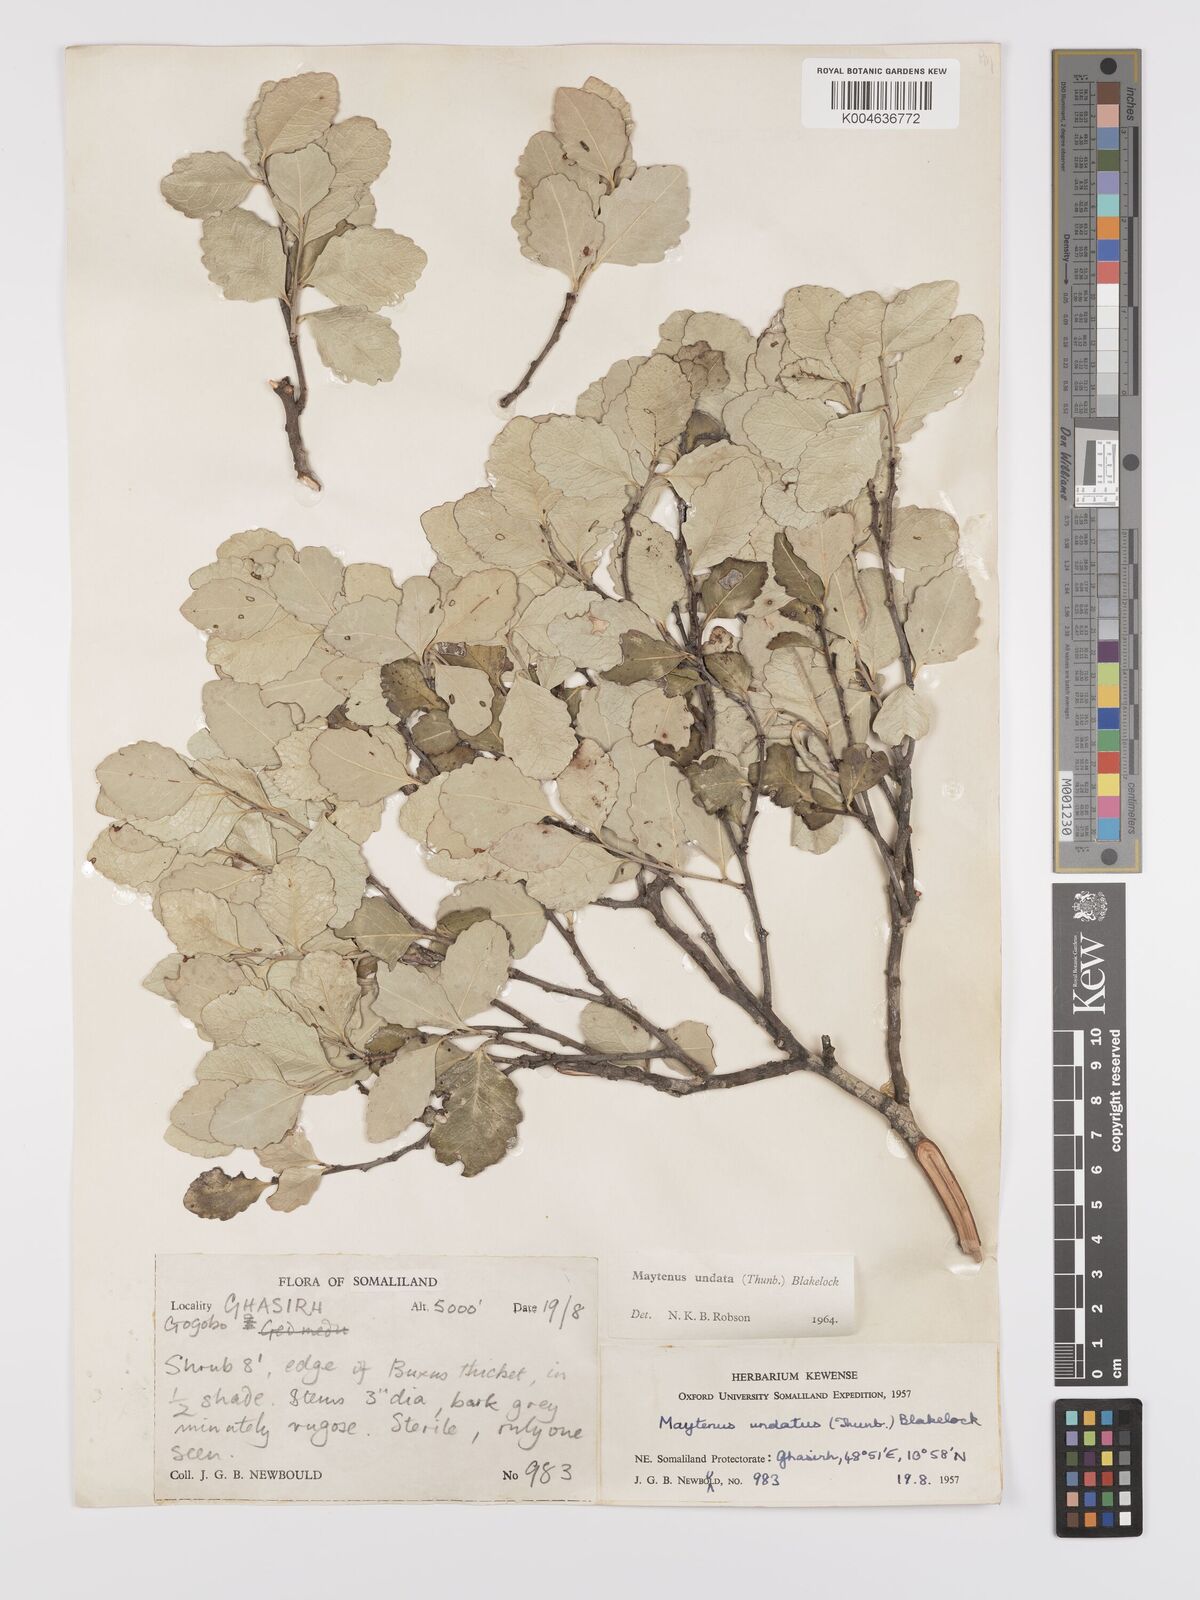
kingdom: Plantae
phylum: Tracheophyta
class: Magnoliopsida
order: Celastrales
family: Celastraceae
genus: Gymnosporia
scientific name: Gymnosporia undata
